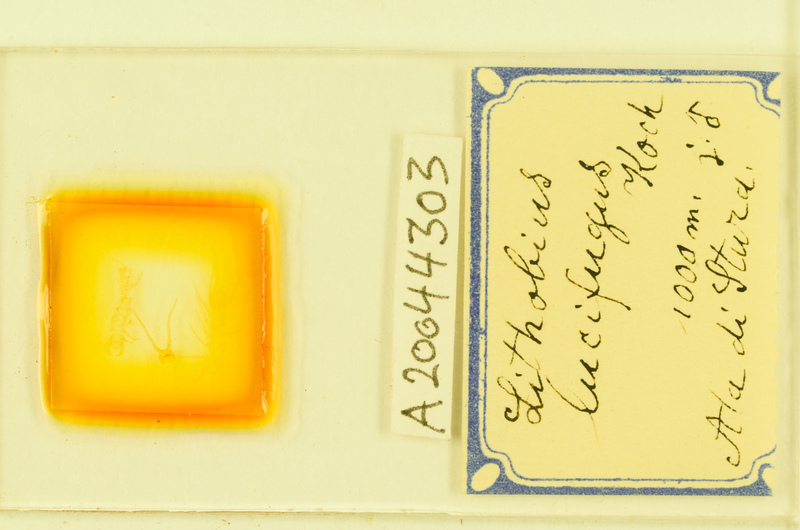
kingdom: Animalia
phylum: Arthropoda
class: Chilopoda
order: Lithobiomorpha
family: Lithobiidae
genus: Lithobius
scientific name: Lithobius lucifugus
